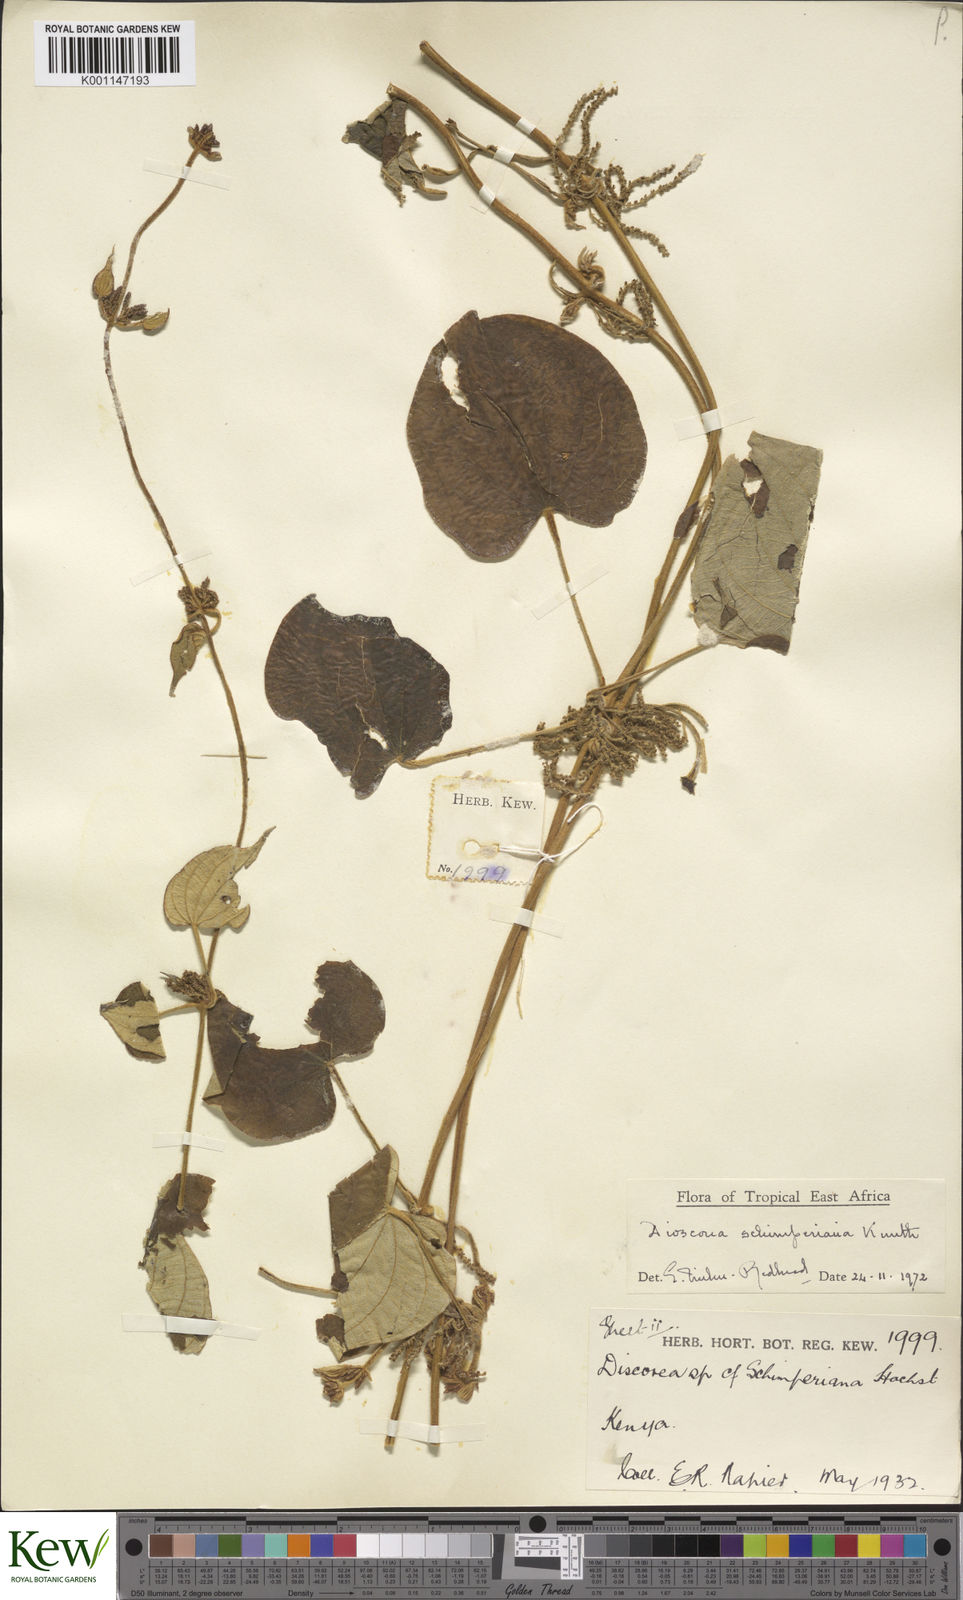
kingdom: Plantae
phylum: Tracheophyta
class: Liliopsida
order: Dioscoreales
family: Dioscoreaceae
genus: Dioscorea
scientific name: Dioscorea schimperiana
